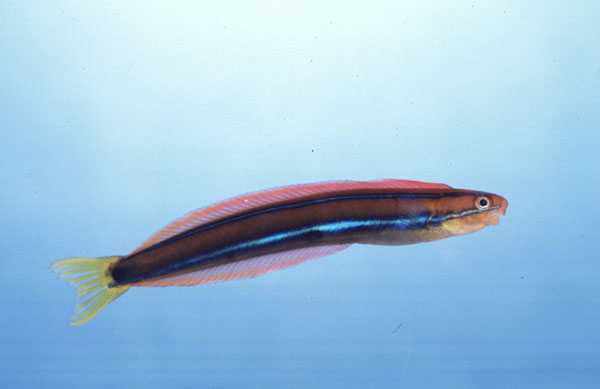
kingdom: Animalia
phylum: Chordata
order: Perciformes
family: Blenniidae
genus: Plagiotremus
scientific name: Plagiotremus rhinorhynchos
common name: Bluestriped fangblenny
